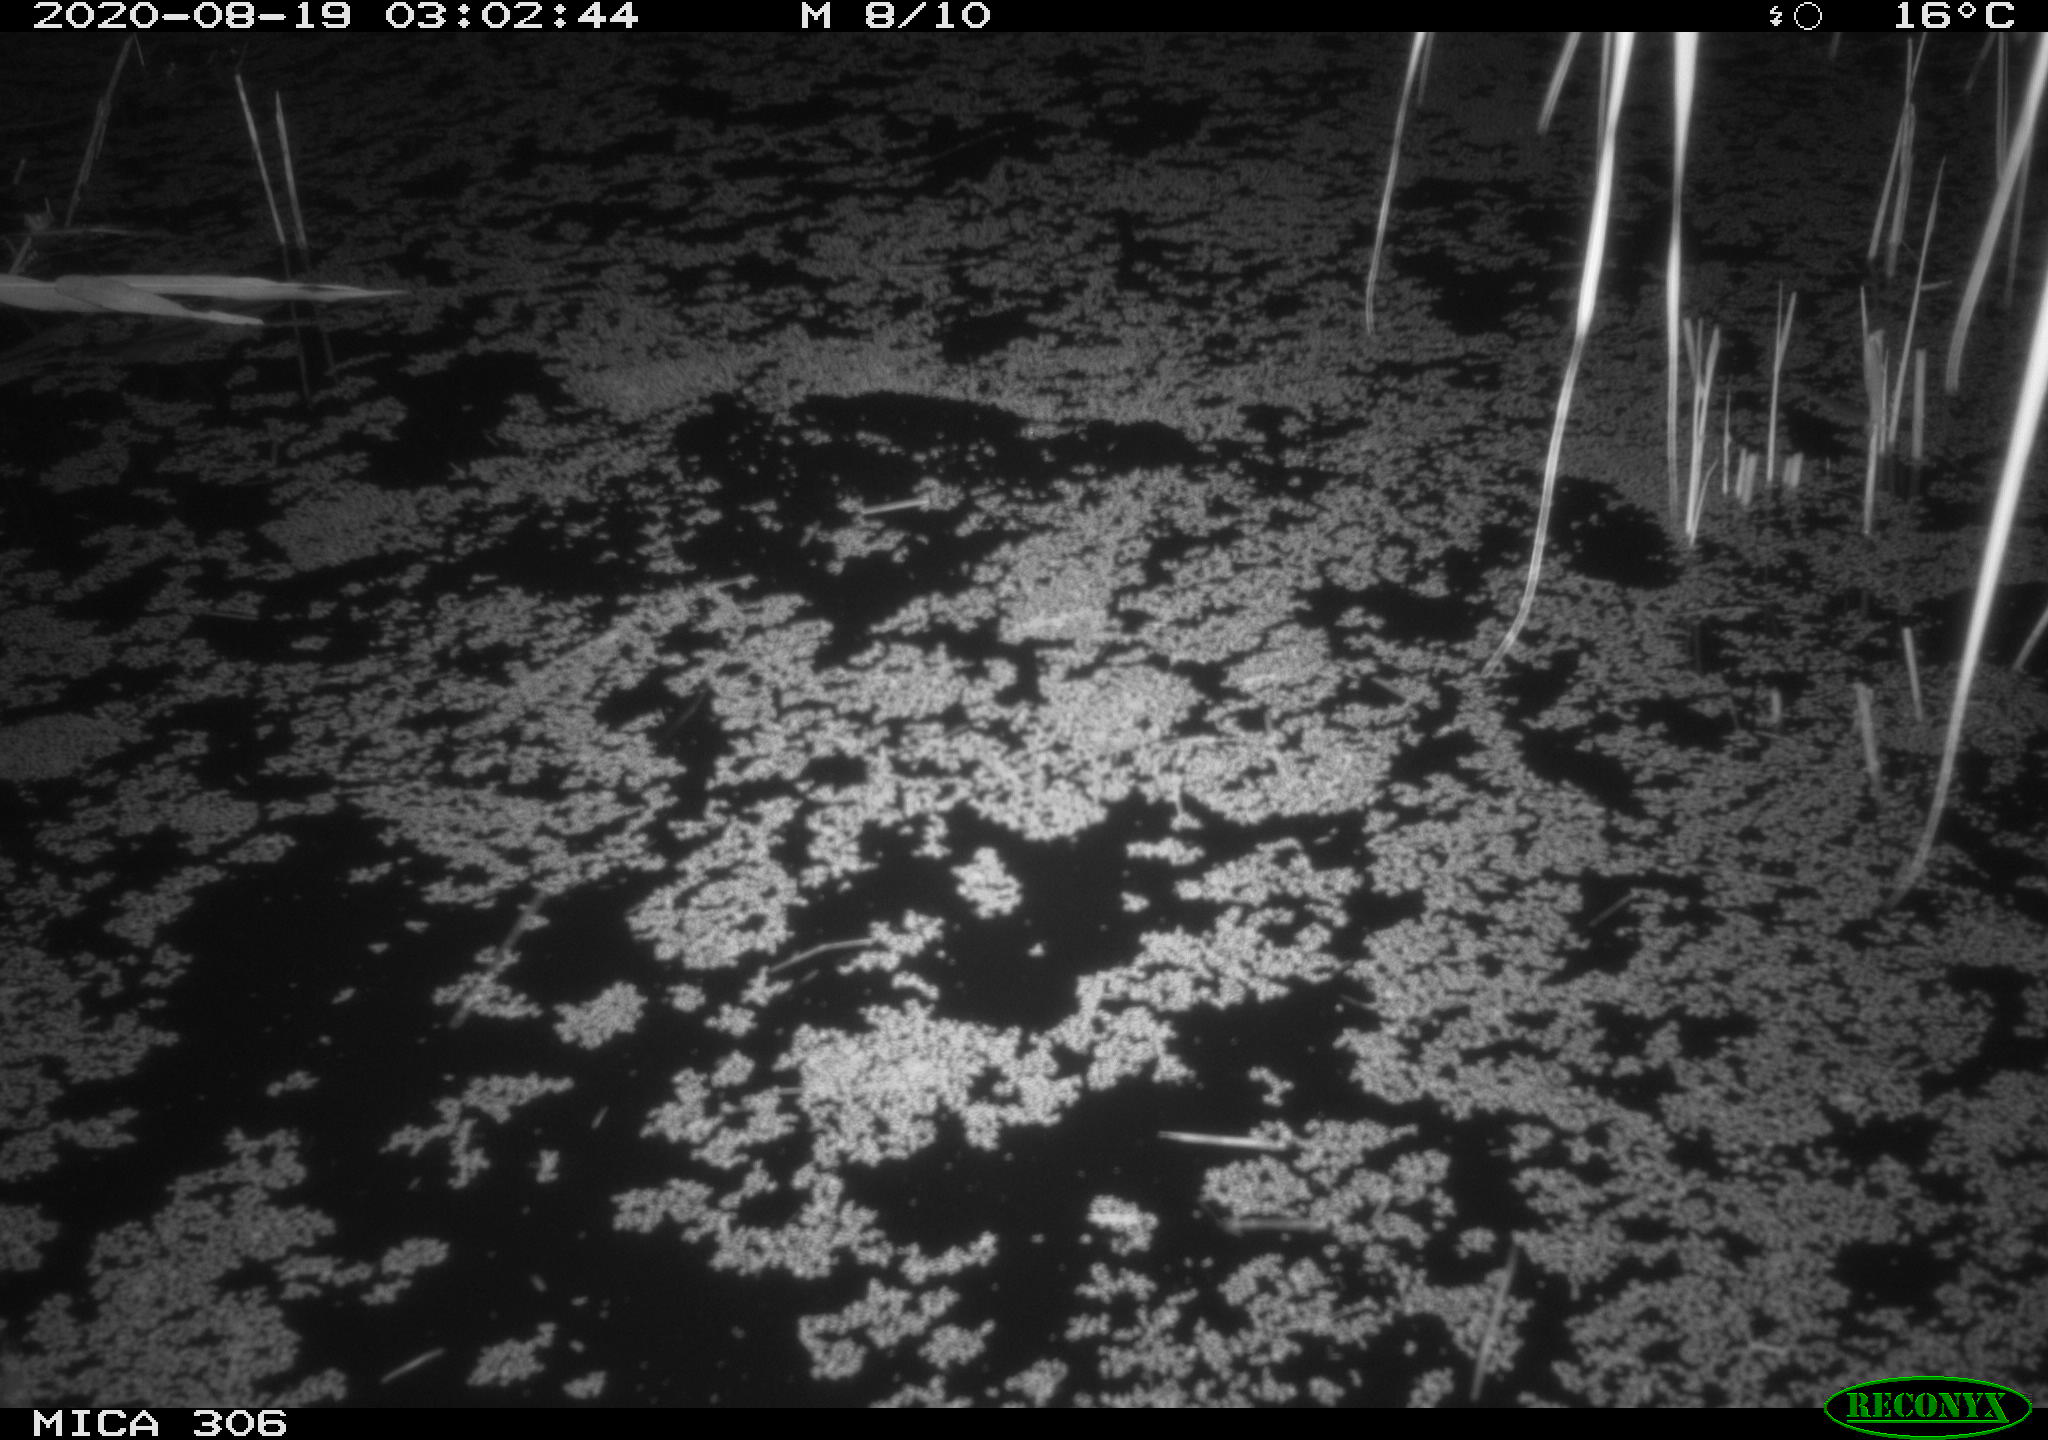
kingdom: Animalia
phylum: Chordata
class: Mammalia
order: Rodentia
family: Muridae
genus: Rattus
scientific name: Rattus norvegicus
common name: Brown rat
